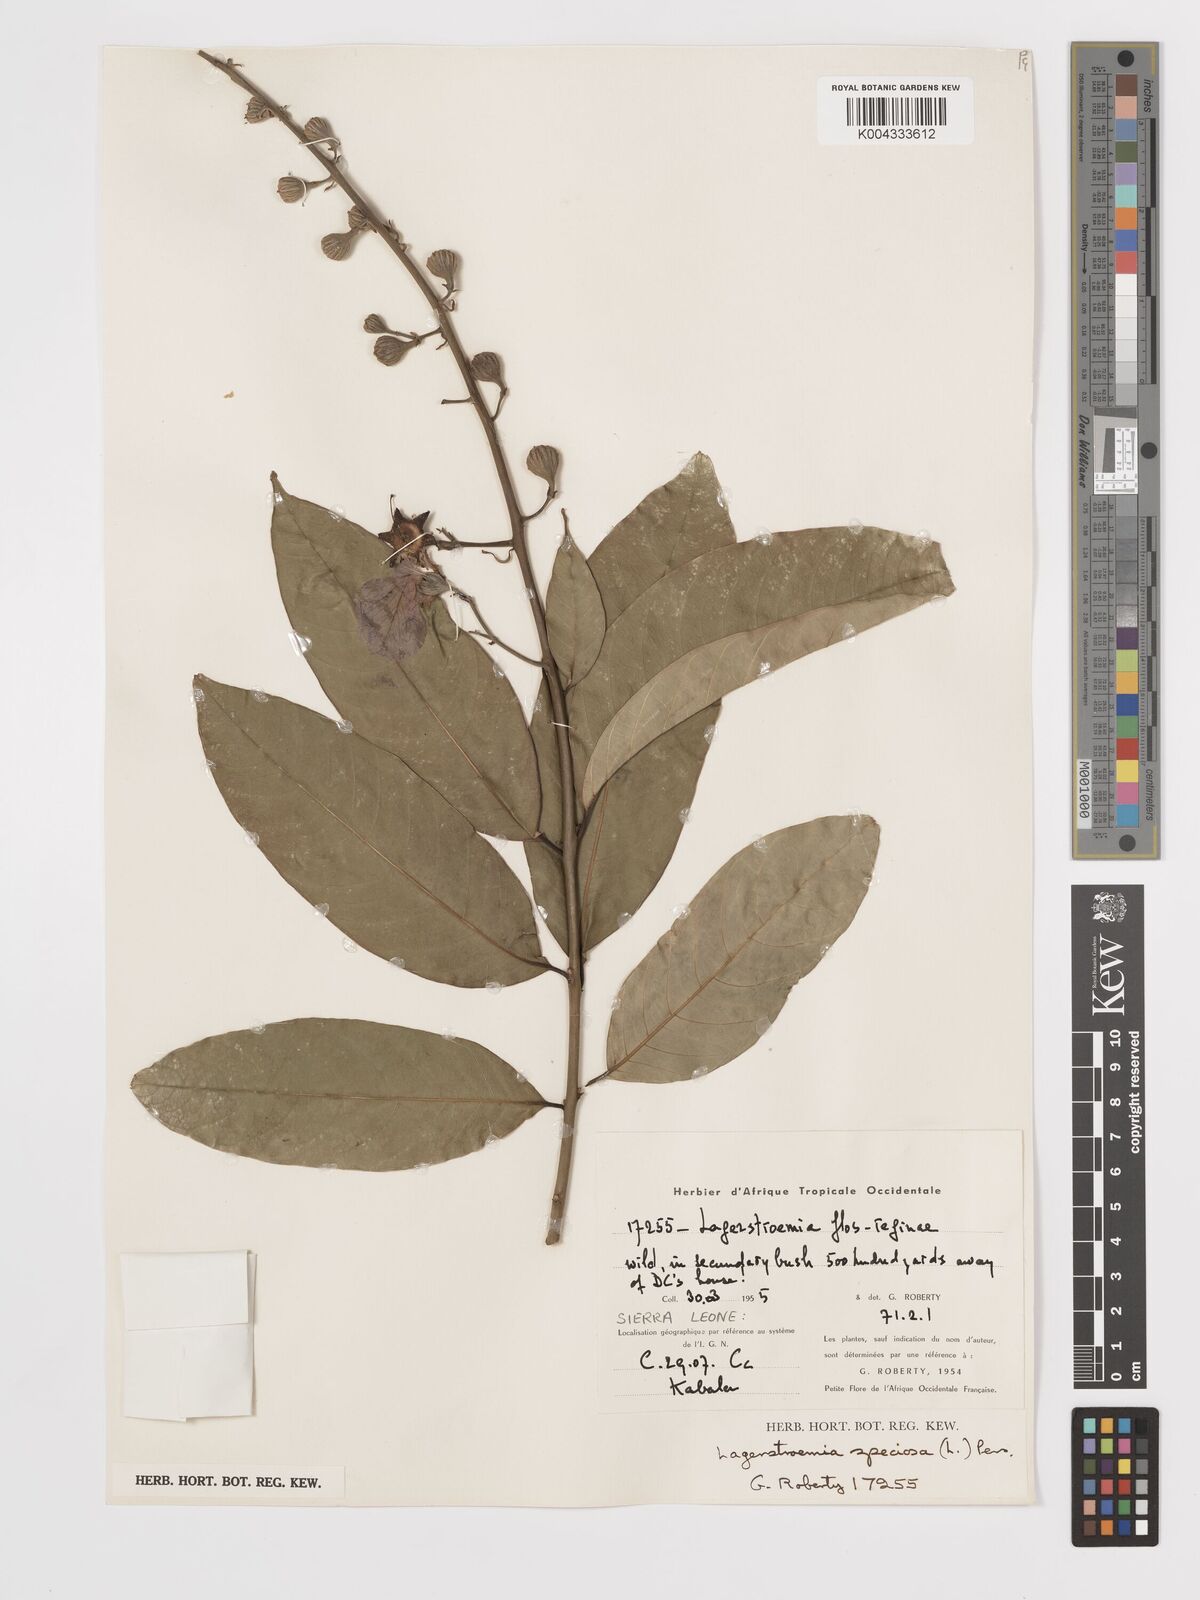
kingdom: Plantae
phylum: Tracheophyta
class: Magnoliopsida
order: Myrtales
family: Lythraceae
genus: Lagerstroemia
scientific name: Lagerstroemia speciosa
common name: Queen's crape-myrtle
